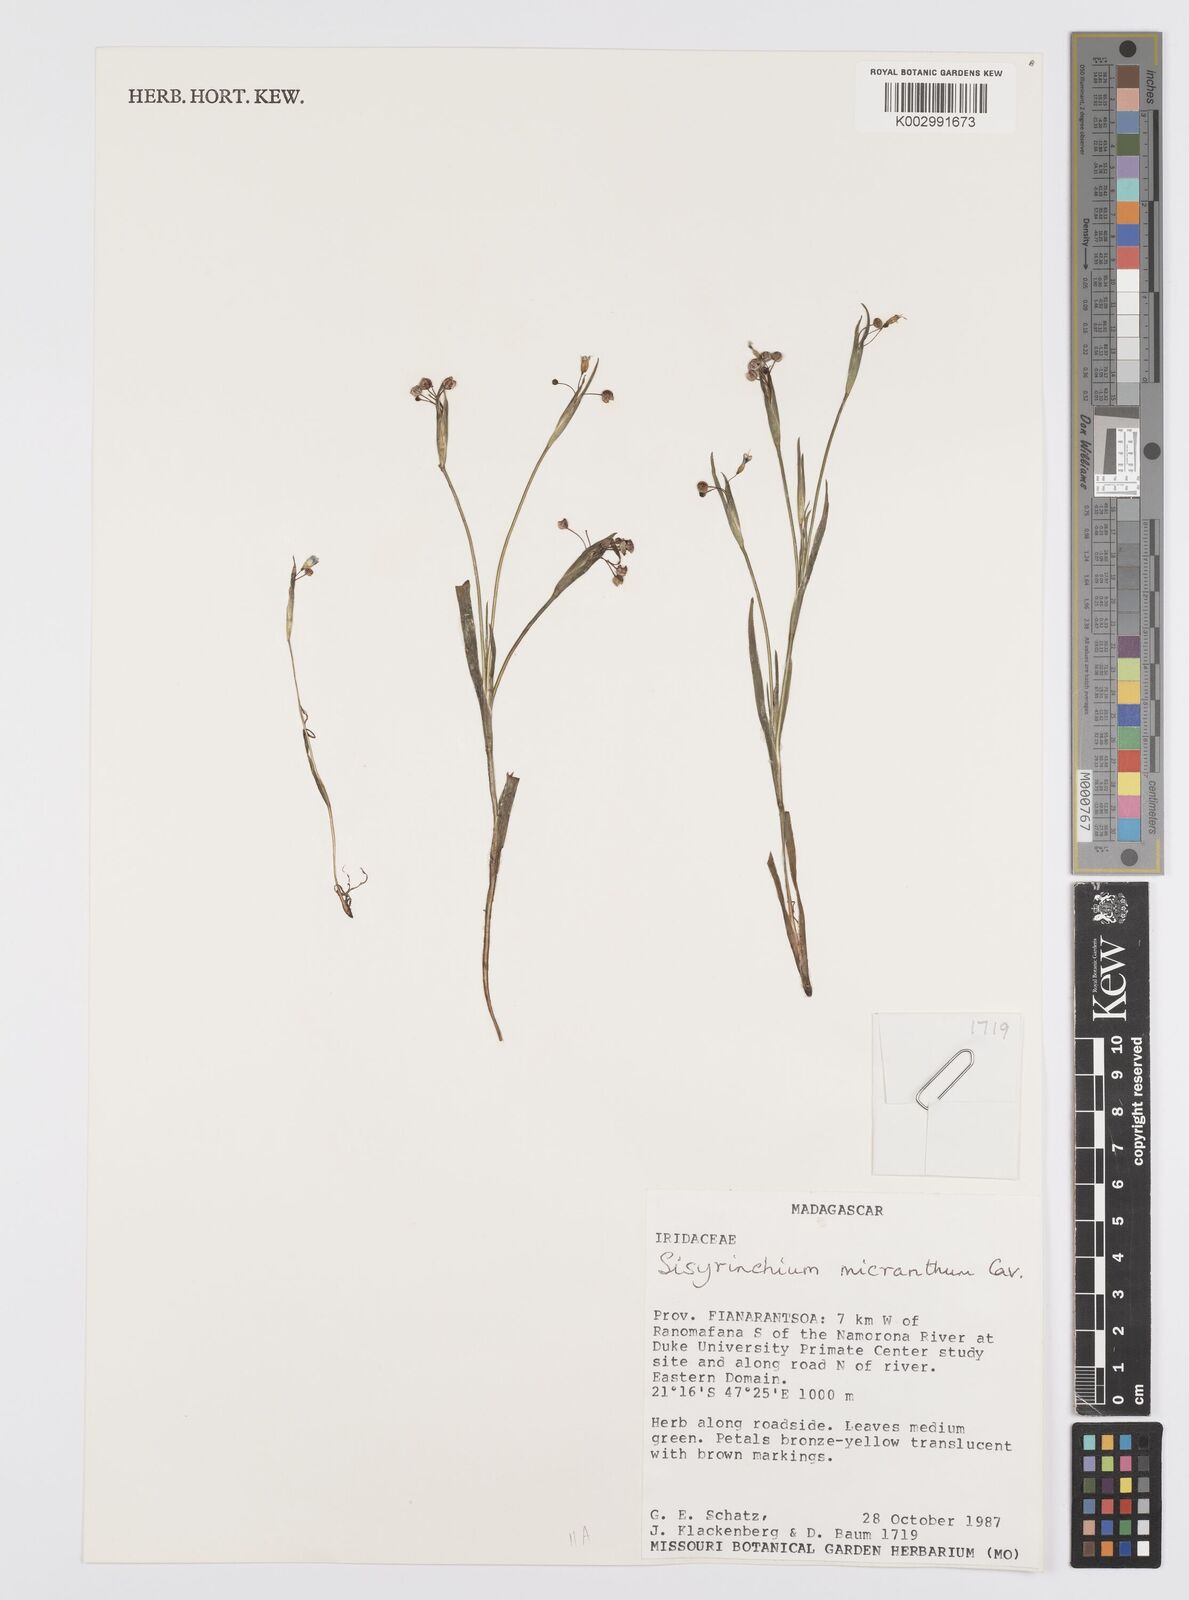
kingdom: Plantae
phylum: Tracheophyta
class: Liliopsida
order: Asparagales
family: Iridaceae
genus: Sisyrinchium
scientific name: Sisyrinchium micranthum
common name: Bermuda pigroot
